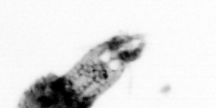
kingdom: Animalia
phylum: Arthropoda
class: Copepoda
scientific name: Copepoda
